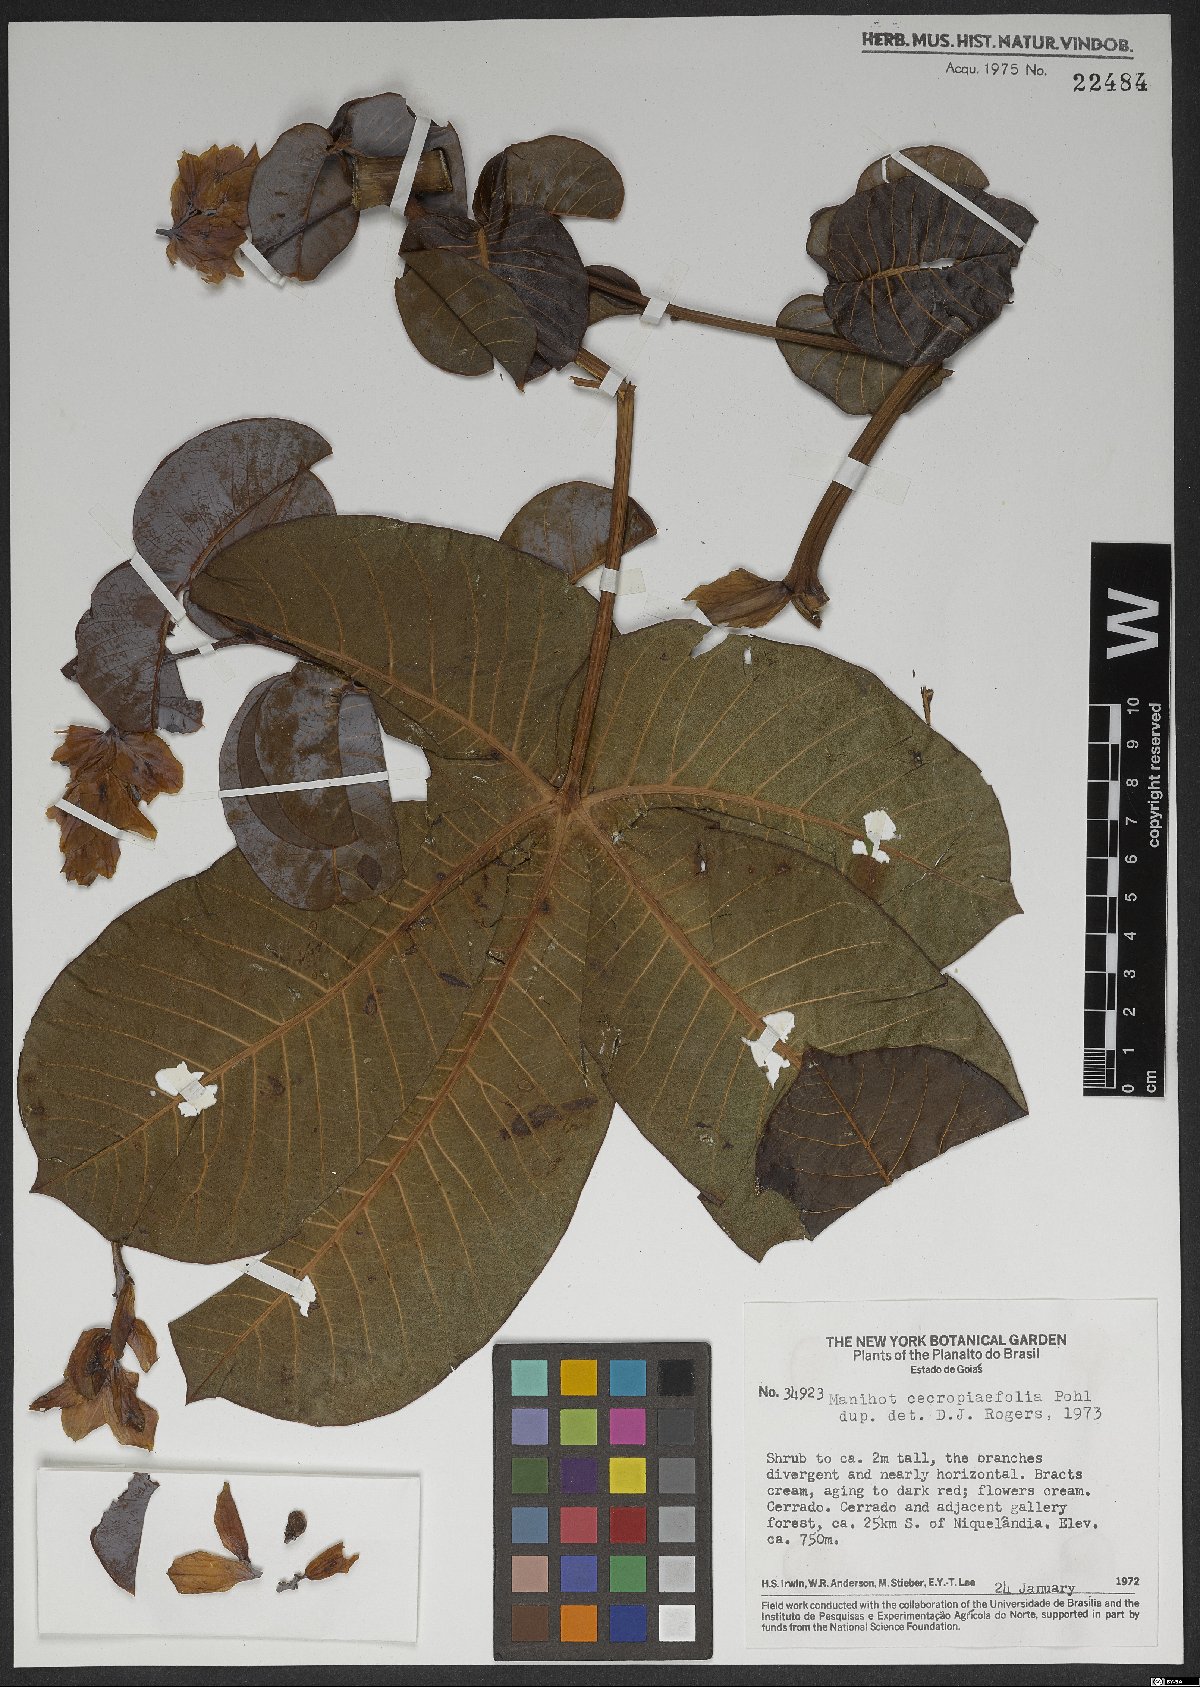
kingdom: Plantae
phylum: Tracheophyta
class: Magnoliopsida
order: Malpighiales
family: Euphorbiaceae
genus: Manihot
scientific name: Manihot cecropiifolia
